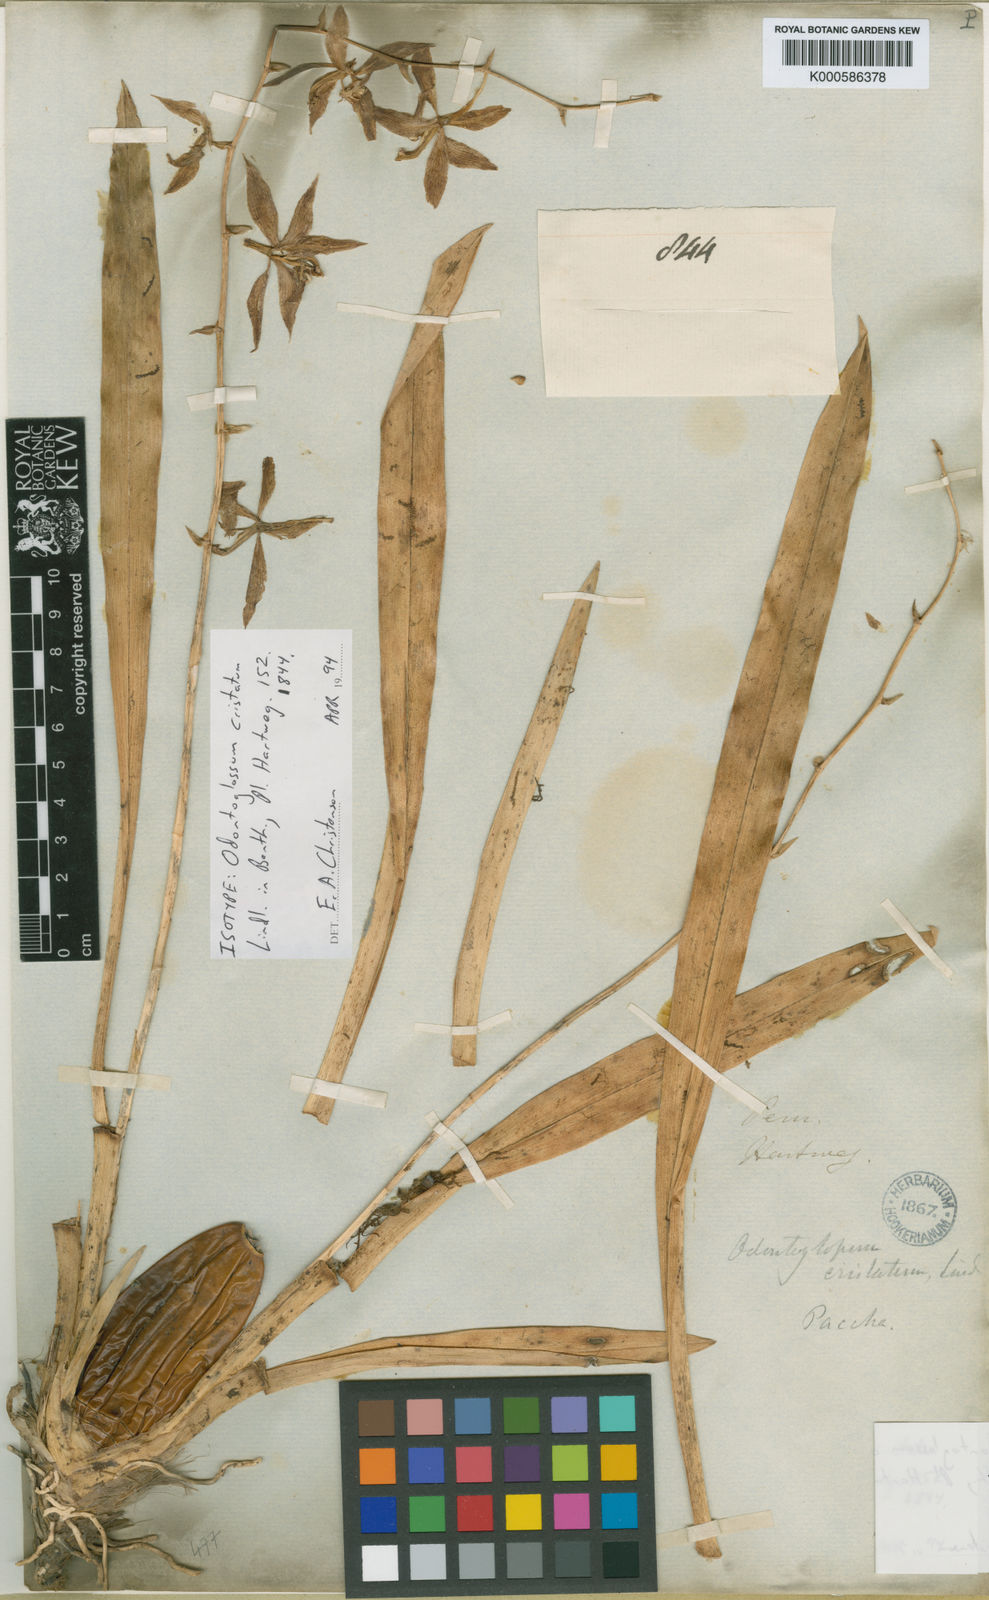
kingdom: Plantae
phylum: Tracheophyta
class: Liliopsida
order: Asparagales
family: Orchidaceae
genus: Oncidium
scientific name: Oncidium cristatum
